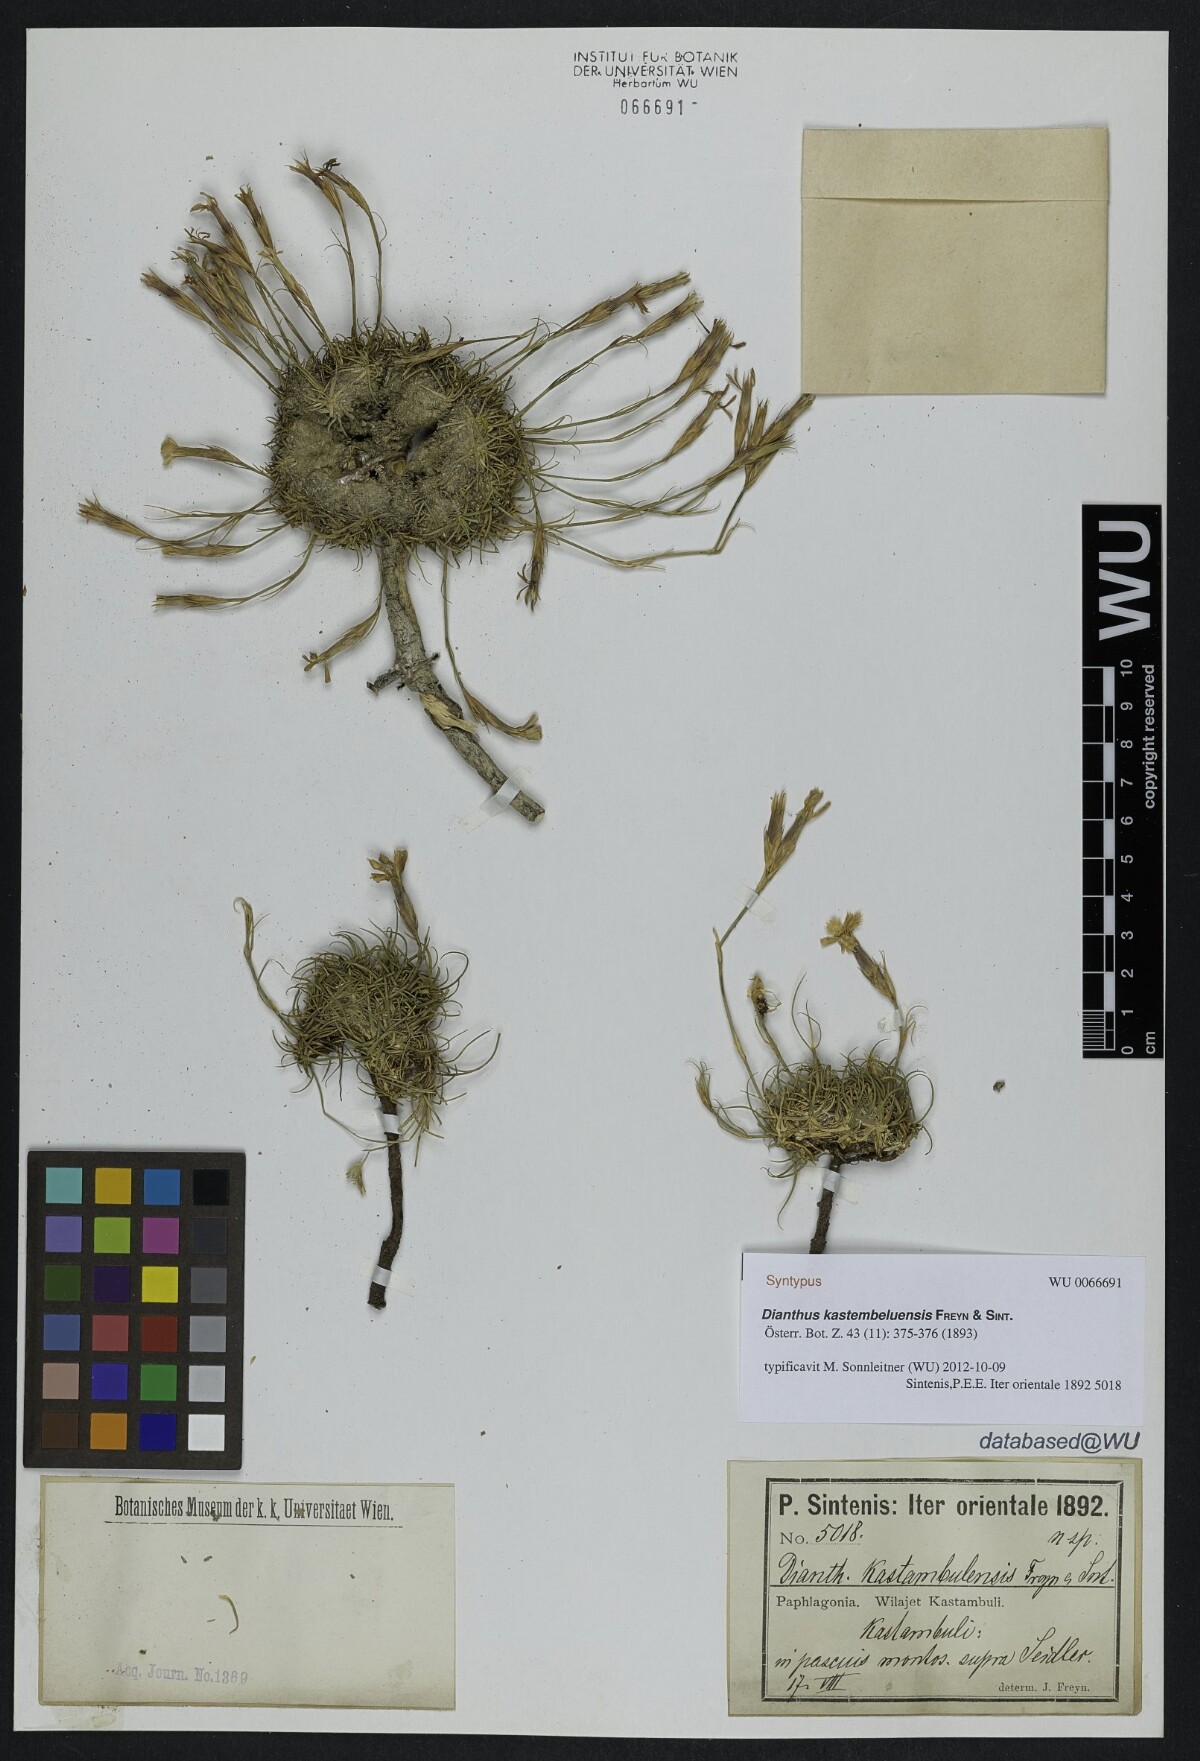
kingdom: Plantae
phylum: Tracheophyta
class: Magnoliopsida
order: Caryophyllales
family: Caryophyllaceae
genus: Dianthus
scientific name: Dianthus kastembeluensis
